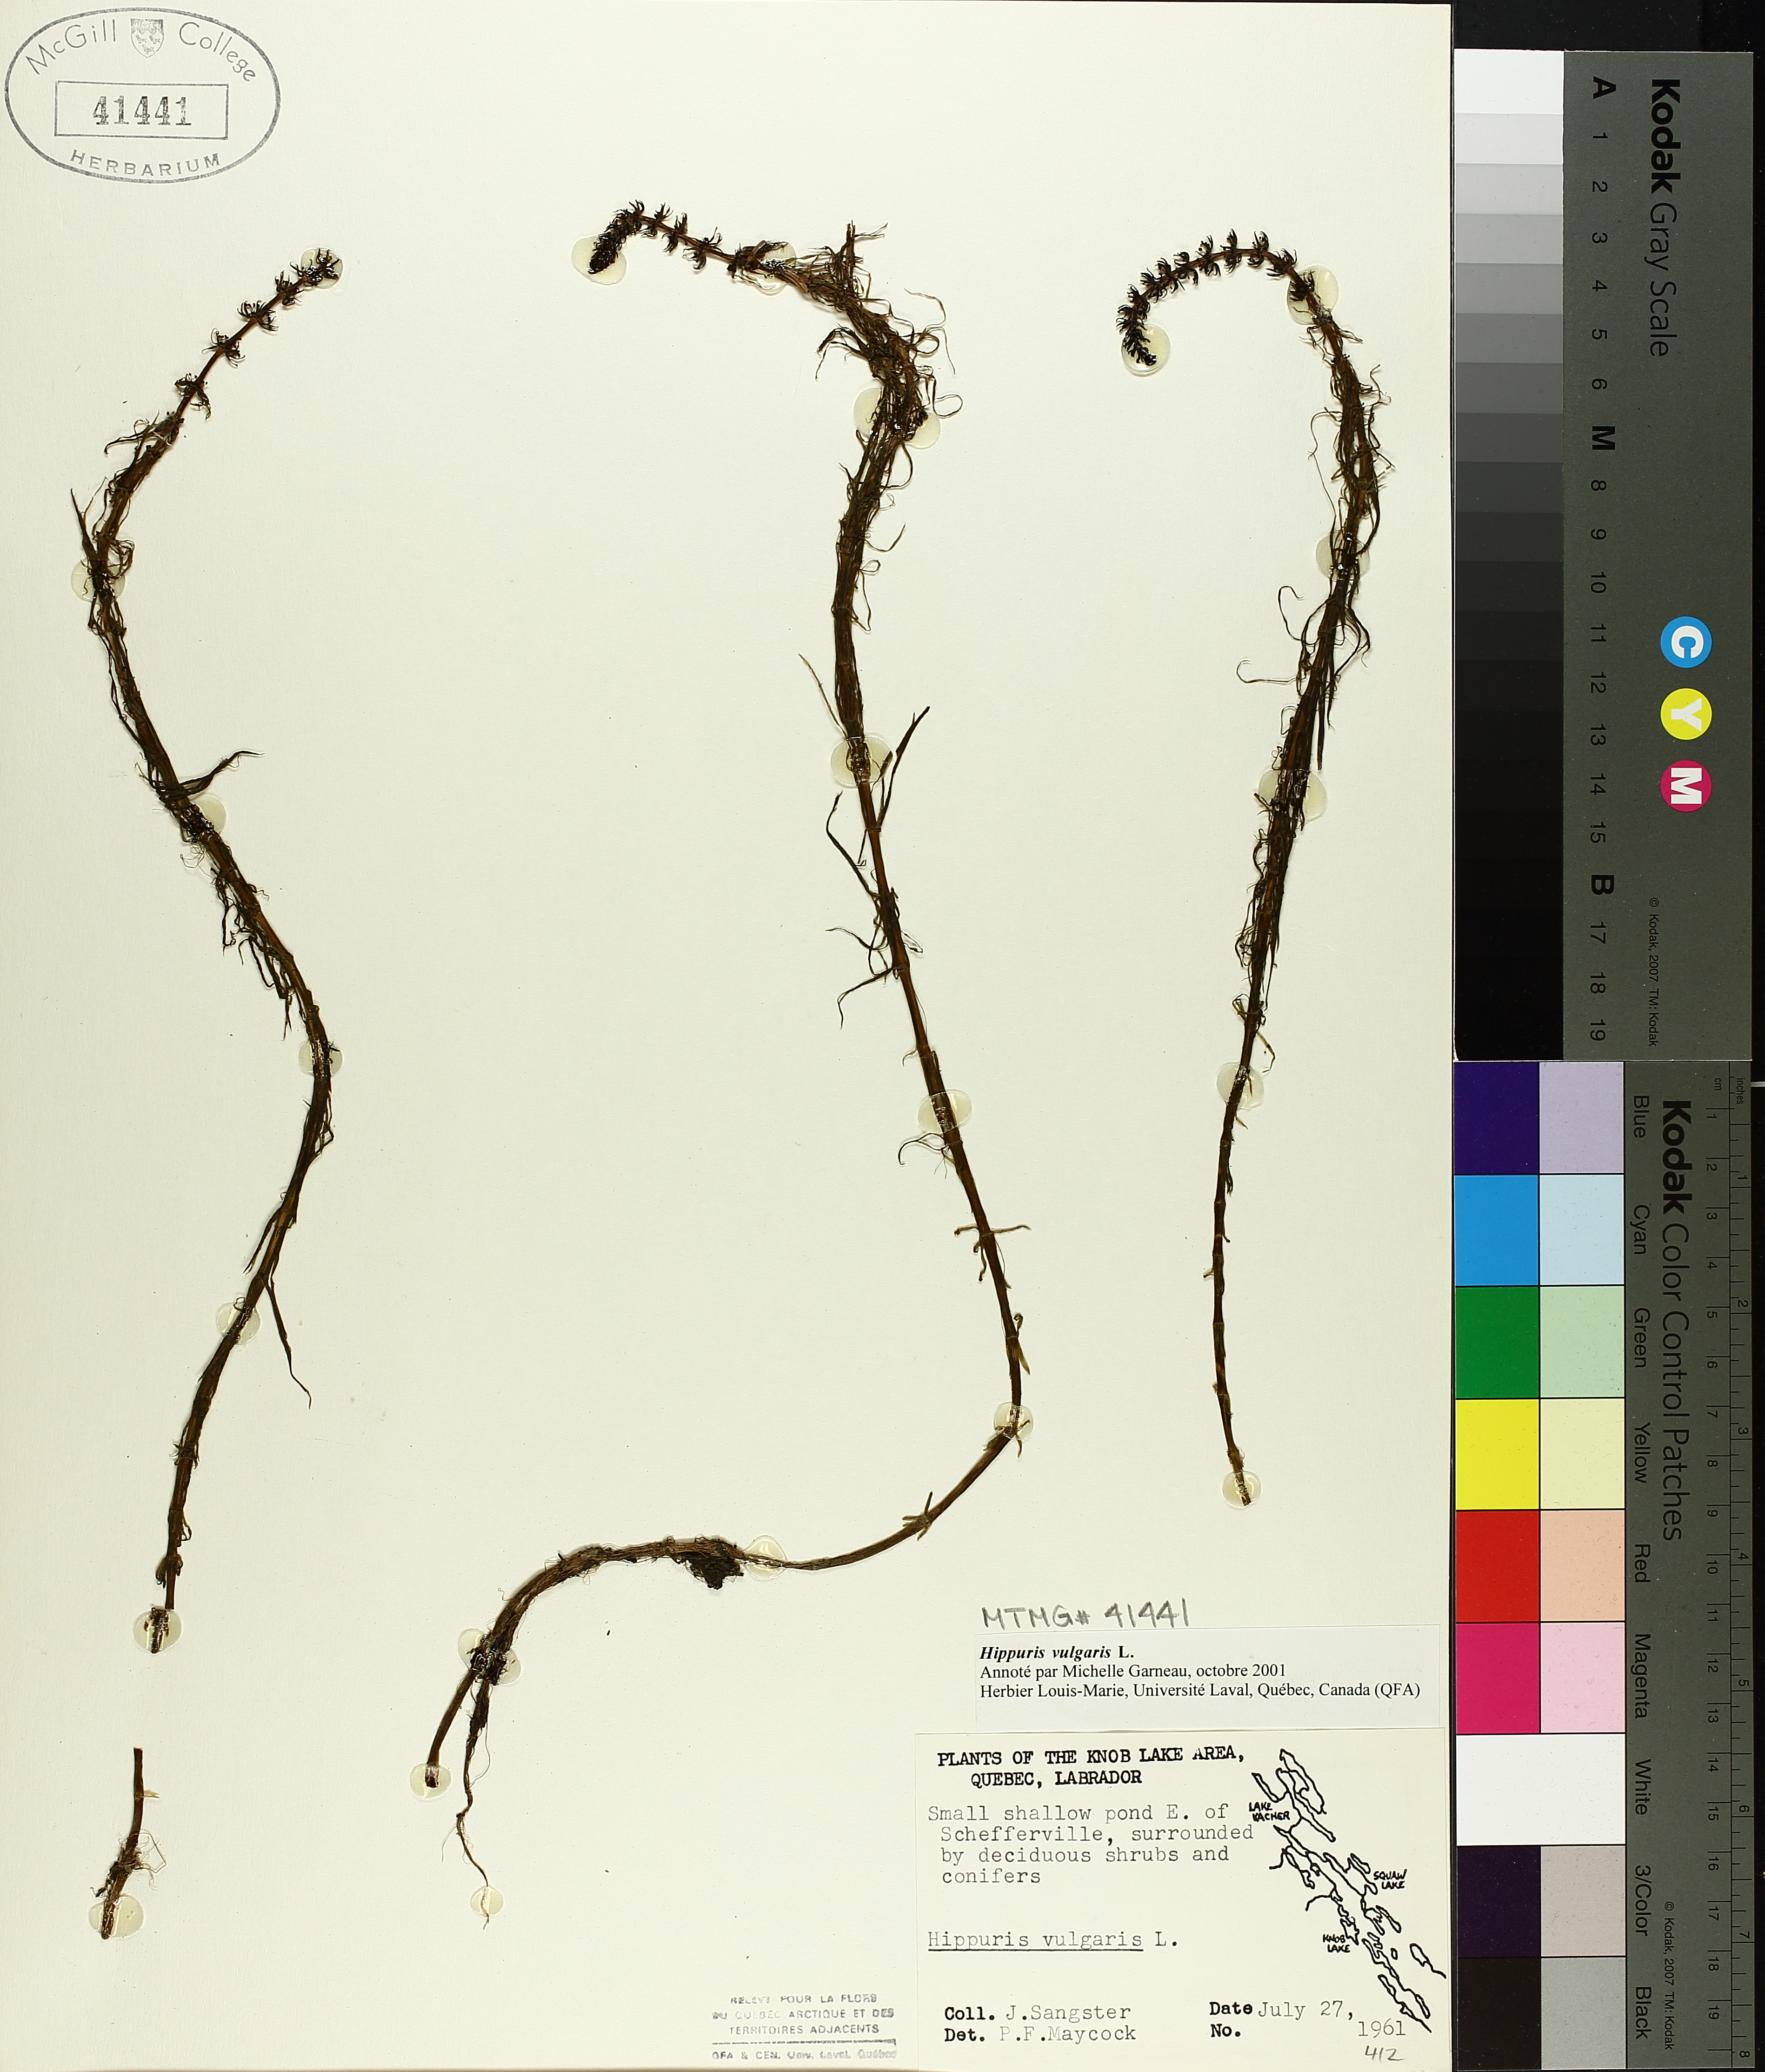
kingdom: Plantae
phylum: Tracheophyta
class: Magnoliopsida
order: Lamiales
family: Plantaginaceae
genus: Hippuris
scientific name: Hippuris vulgaris
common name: Mare's-tail
